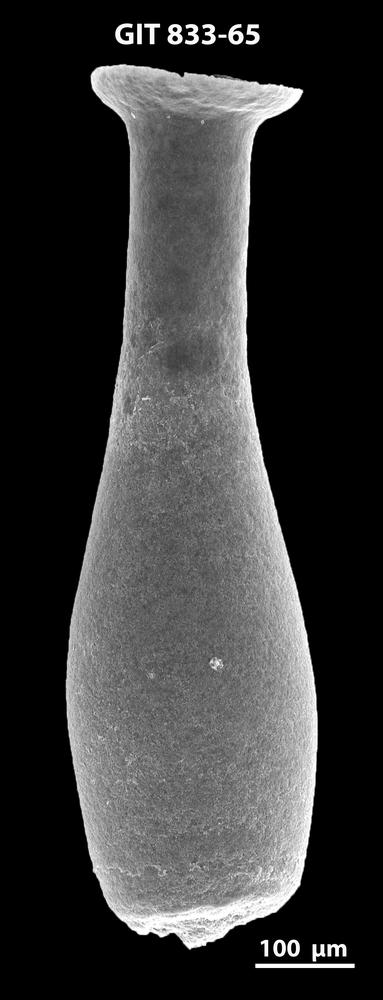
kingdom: Animalia
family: Lagenochitinidae
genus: Lagenochitina
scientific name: Lagenochitina megaesthonica
